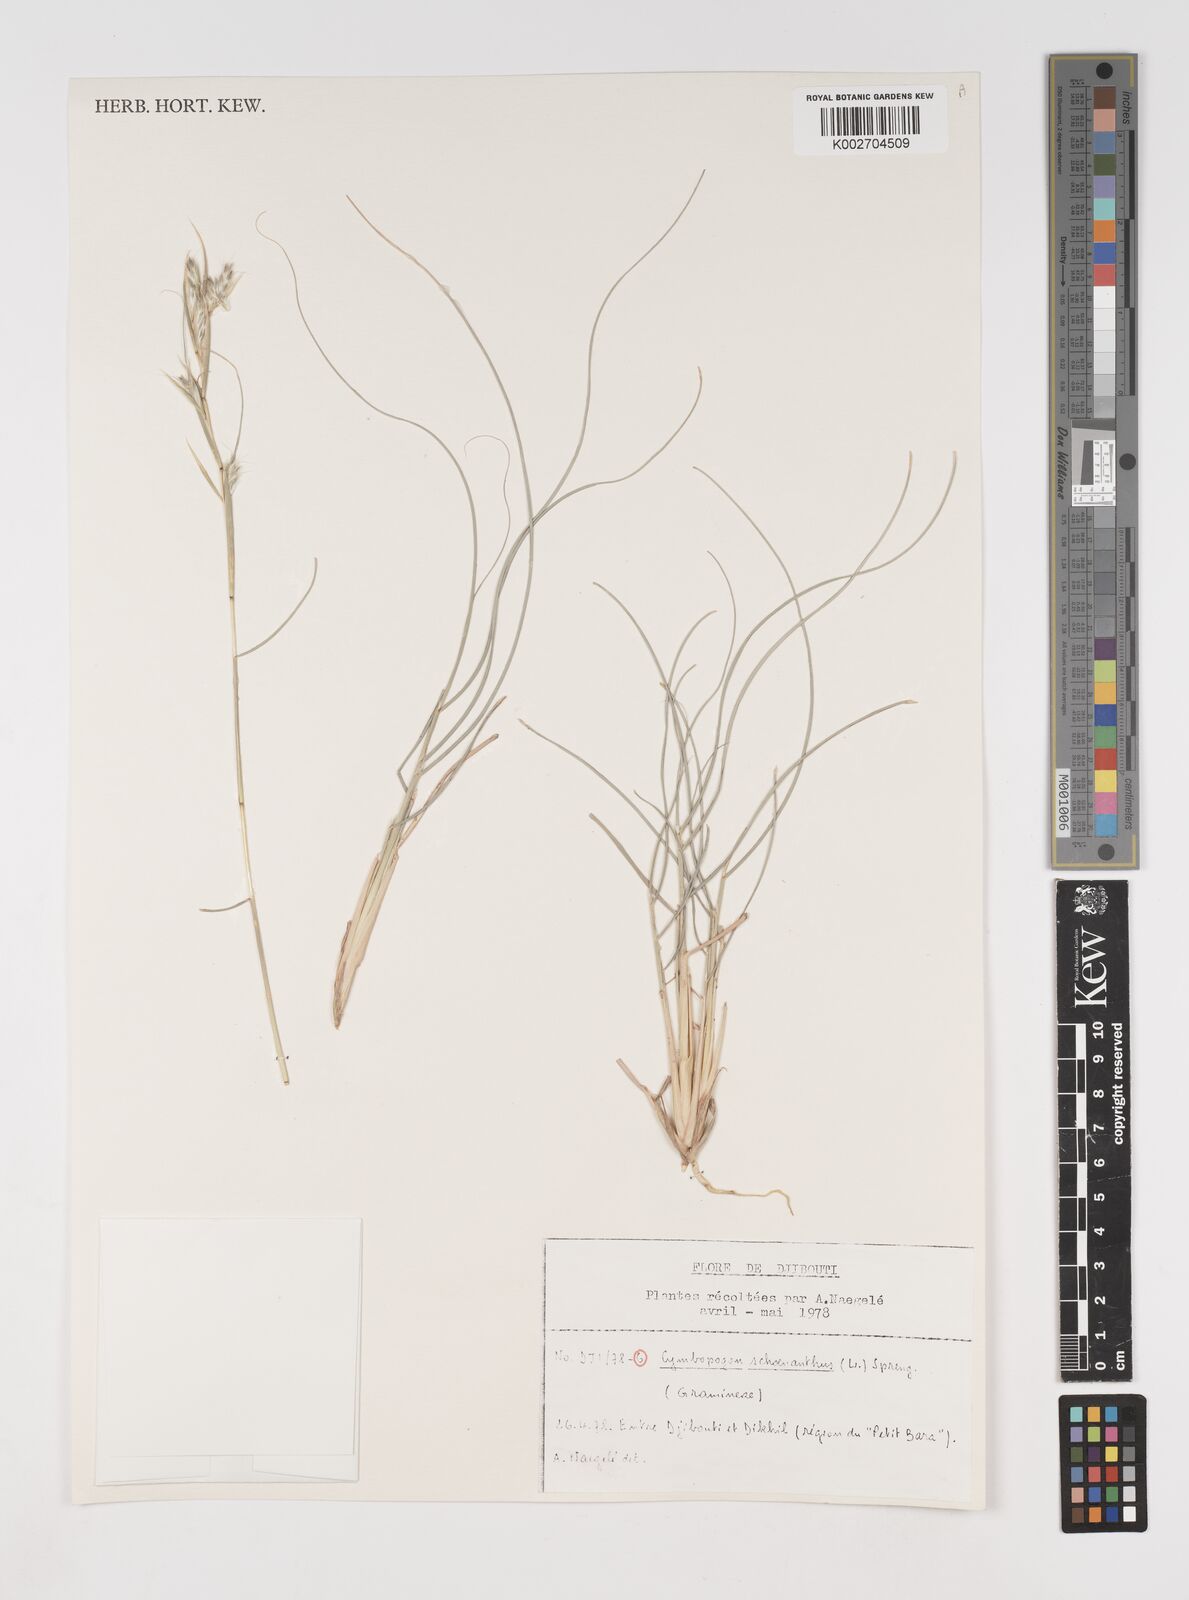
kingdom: Plantae
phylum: Tracheophyta
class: Liliopsida
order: Poales
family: Poaceae
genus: Cymbopogon
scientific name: Cymbopogon schoenanthus
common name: Geranium grass
